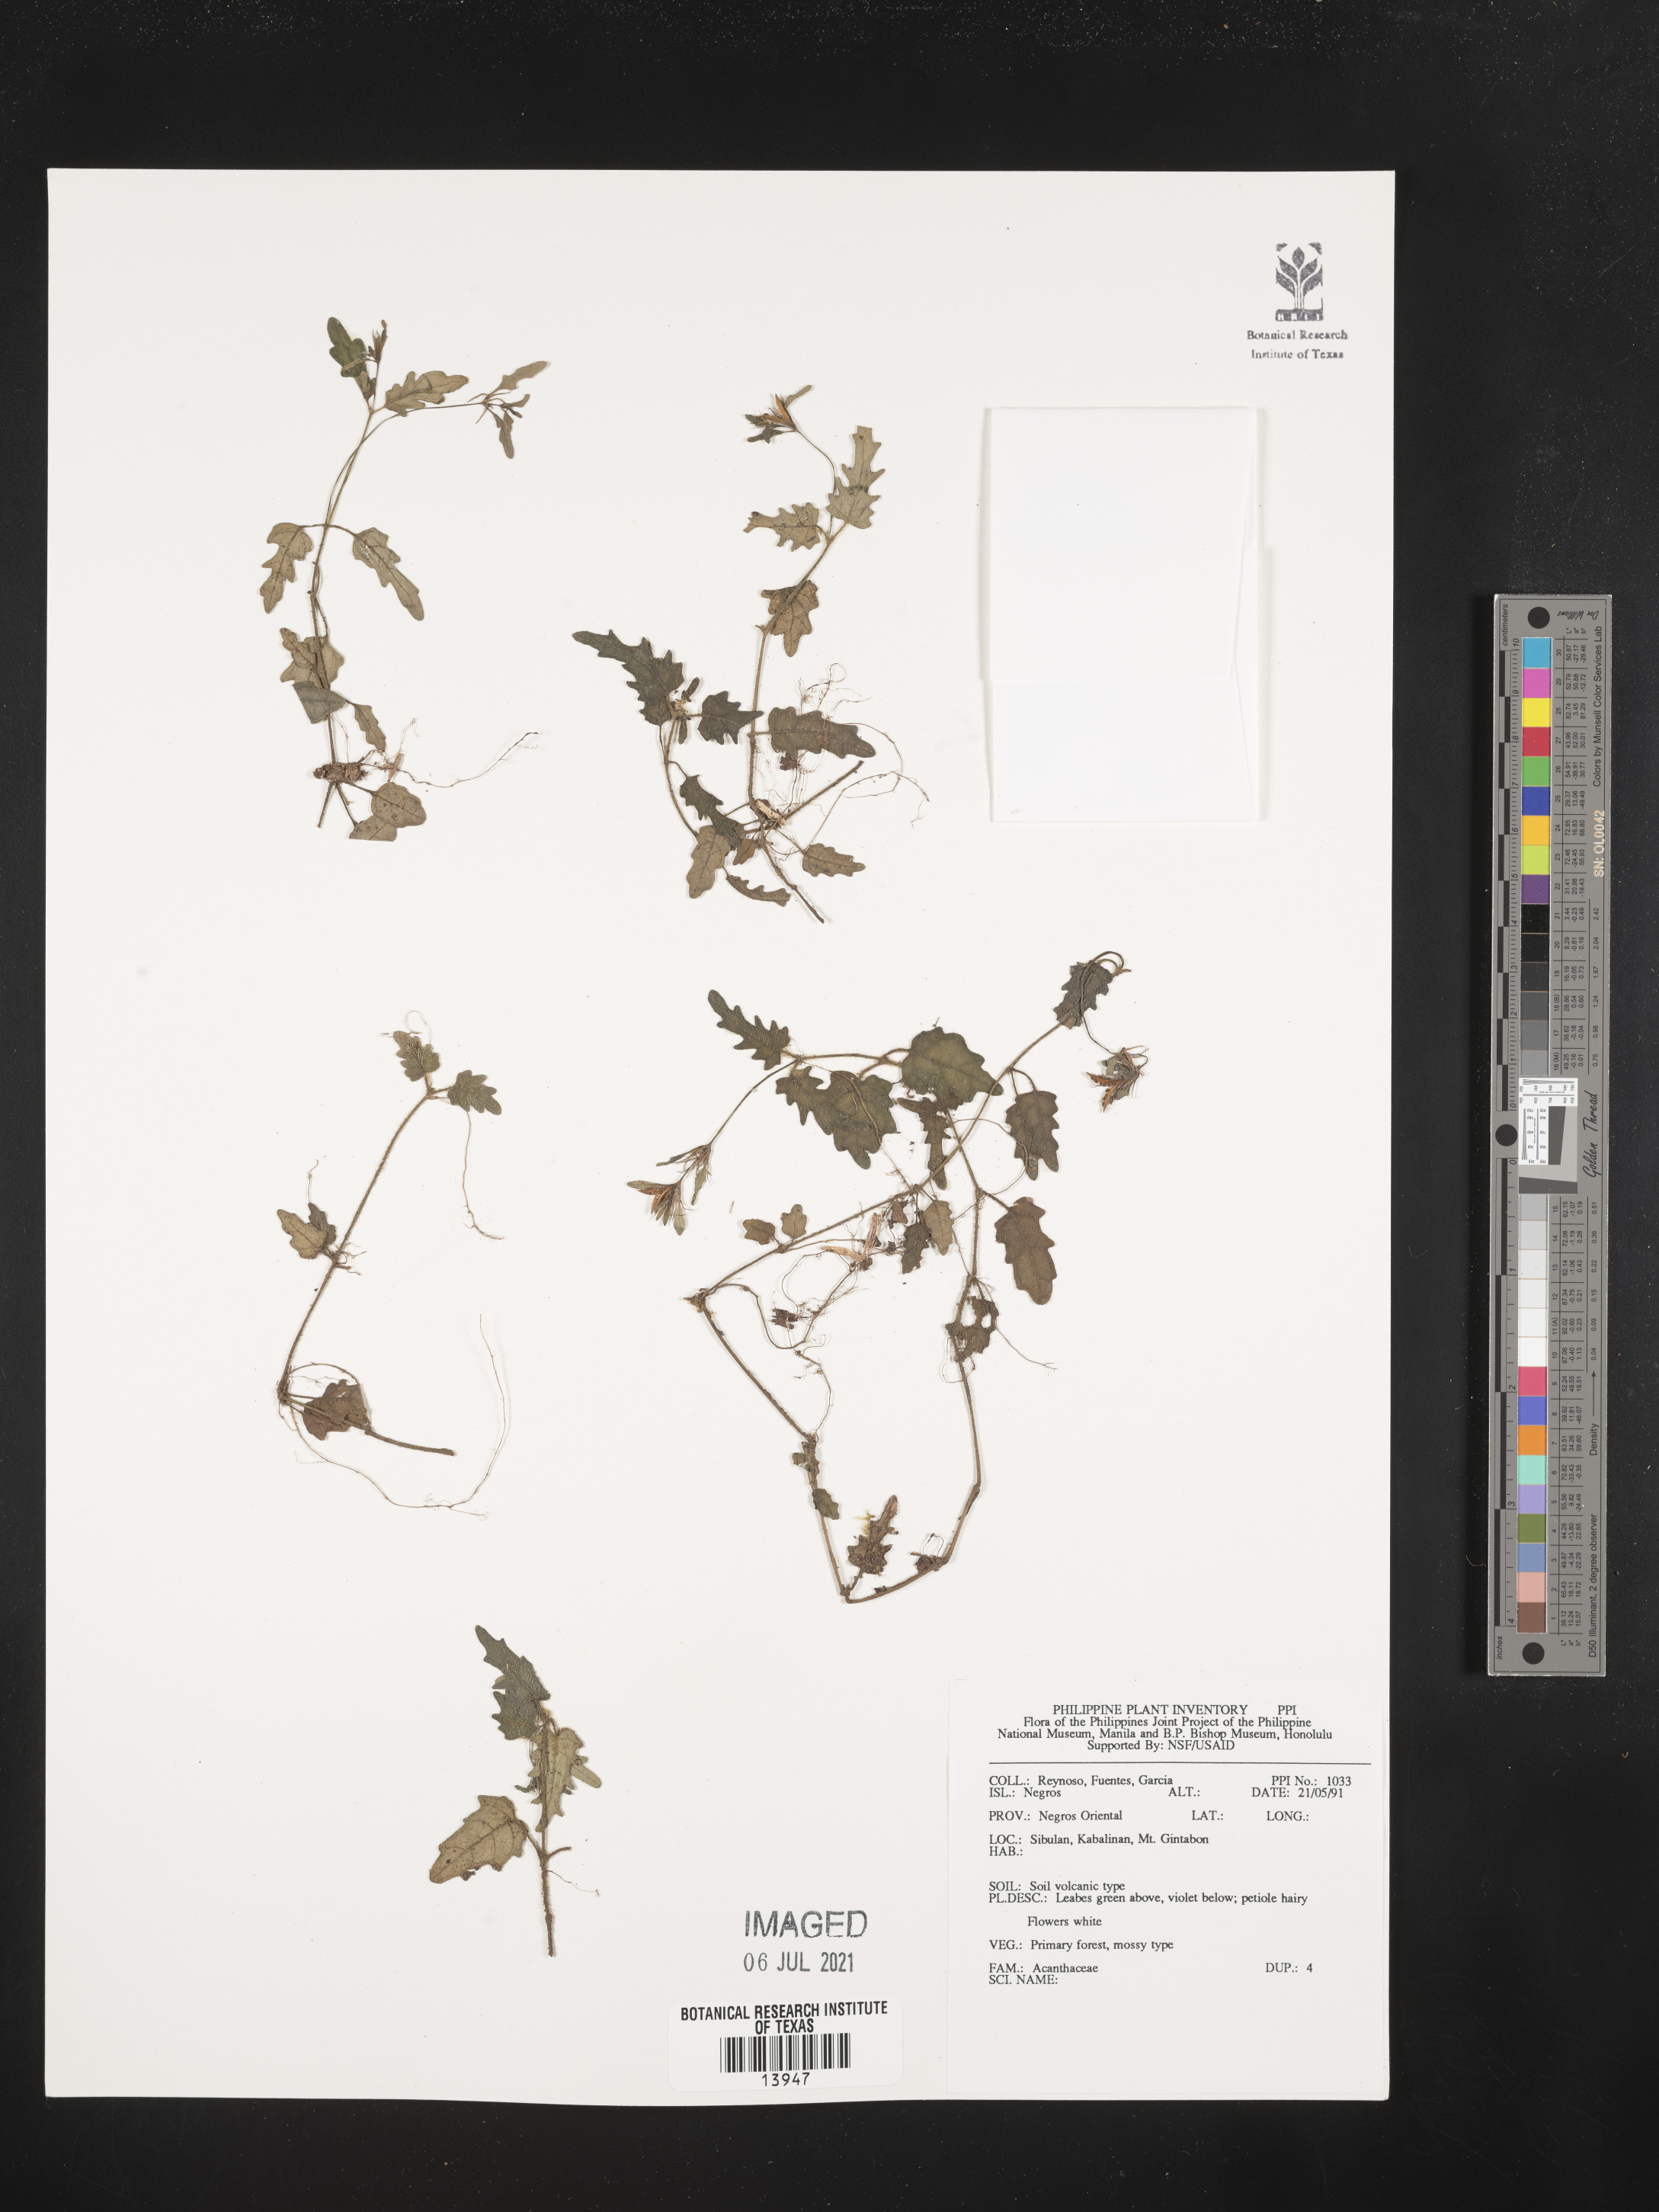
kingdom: Plantae
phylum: Tracheophyta
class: Magnoliopsida
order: Lamiales
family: Acanthaceae
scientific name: Acanthaceae
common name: Acanthaceae
